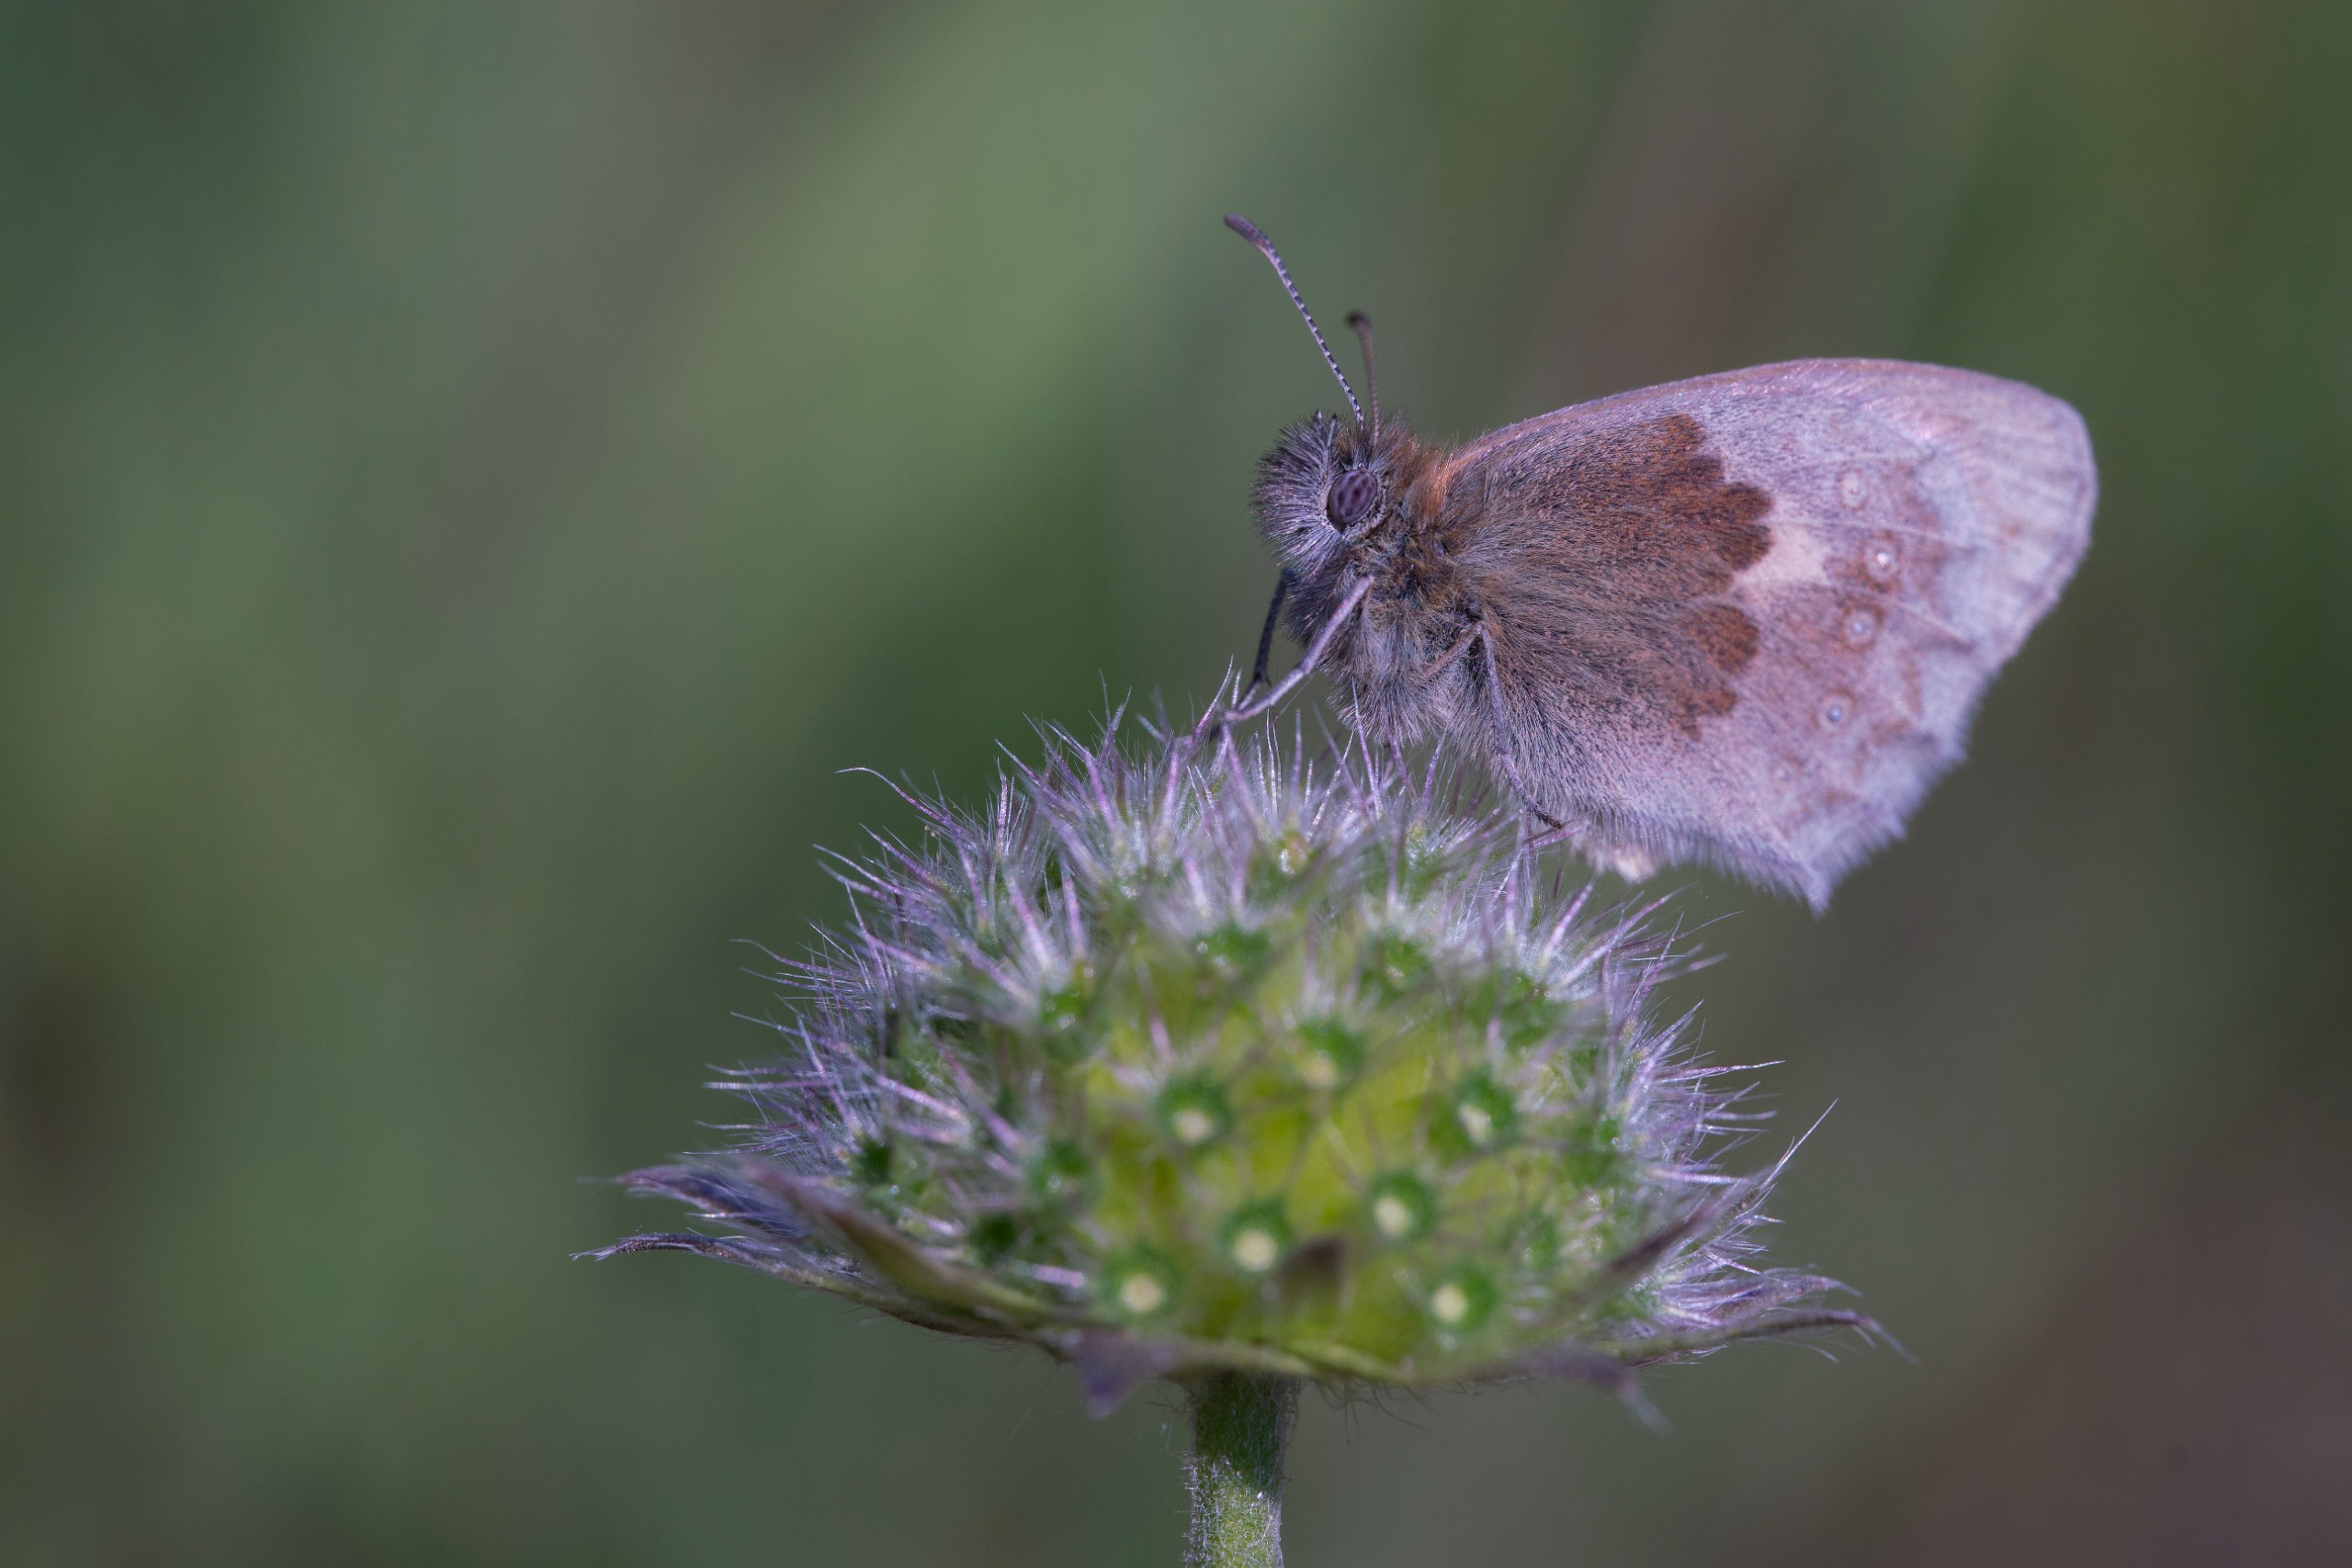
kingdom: Animalia
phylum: Arthropoda
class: Insecta
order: Lepidoptera
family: Nymphalidae
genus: Coenonympha
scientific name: Coenonympha pamphilus
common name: Okkergul randøje
